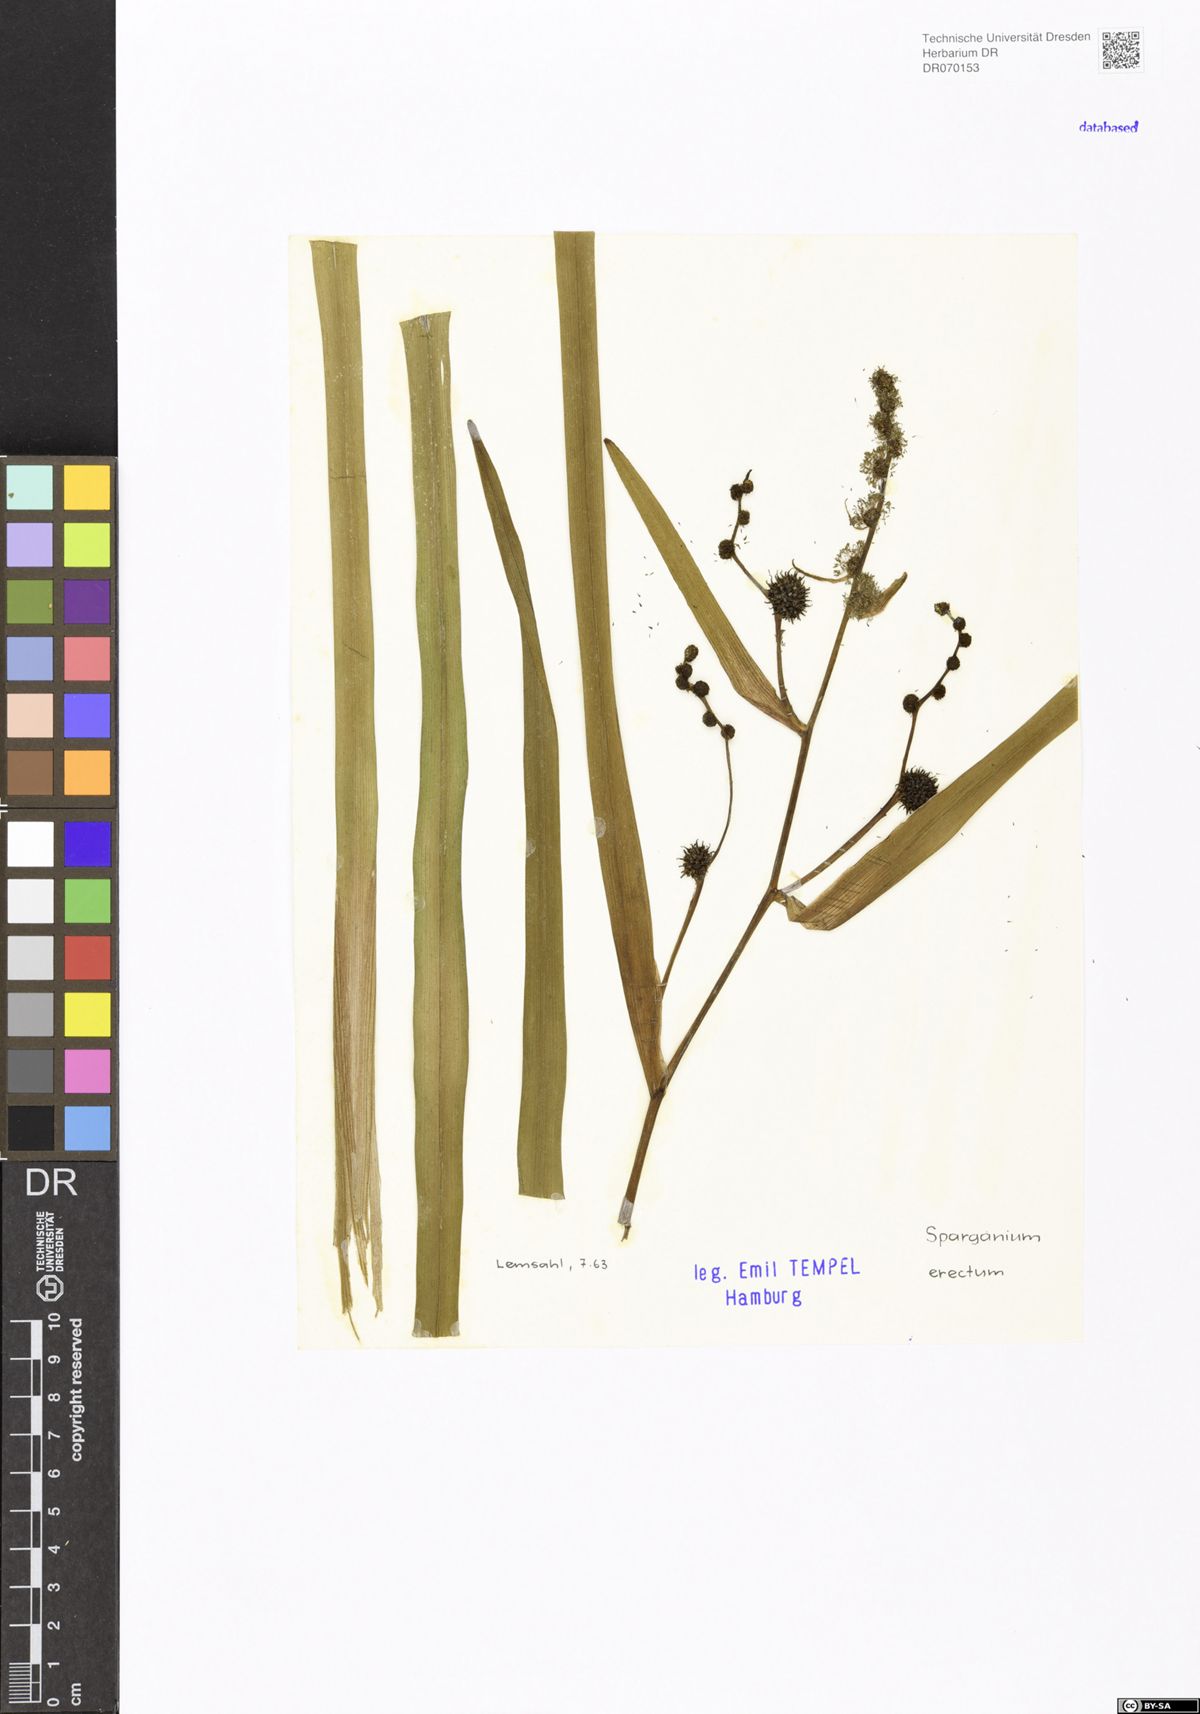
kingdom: Plantae
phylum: Tracheophyta
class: Liliopsida
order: Poales
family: Typhaceae
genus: Sparganium
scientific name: Sparganium erectum
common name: Branched bur-reed
